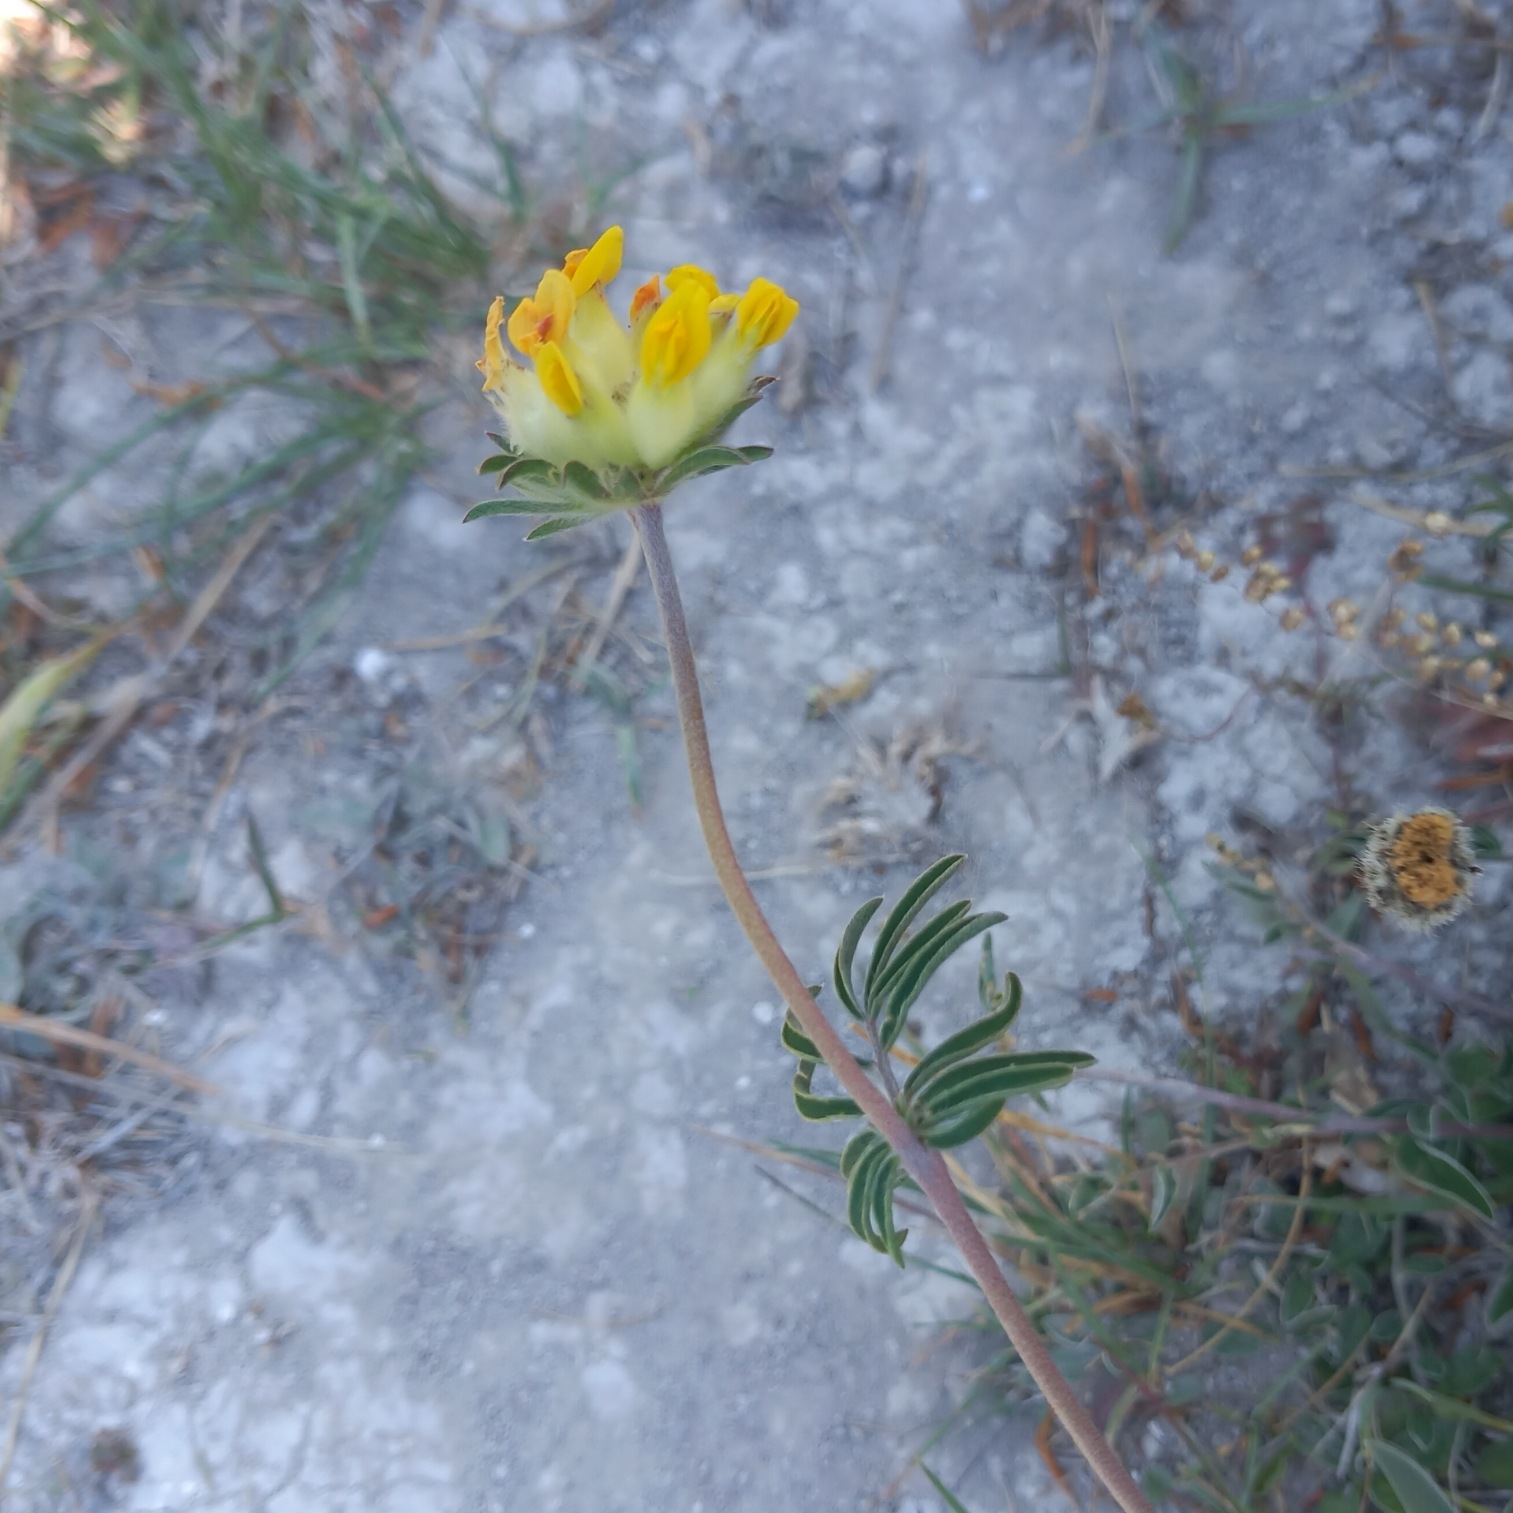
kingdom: Plantae
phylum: Tracheophyta
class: Magnoliopsida
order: Fabales
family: Fabaceae
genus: Anthyllis
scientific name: Anthyllis vulneraria
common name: Rundbælg
